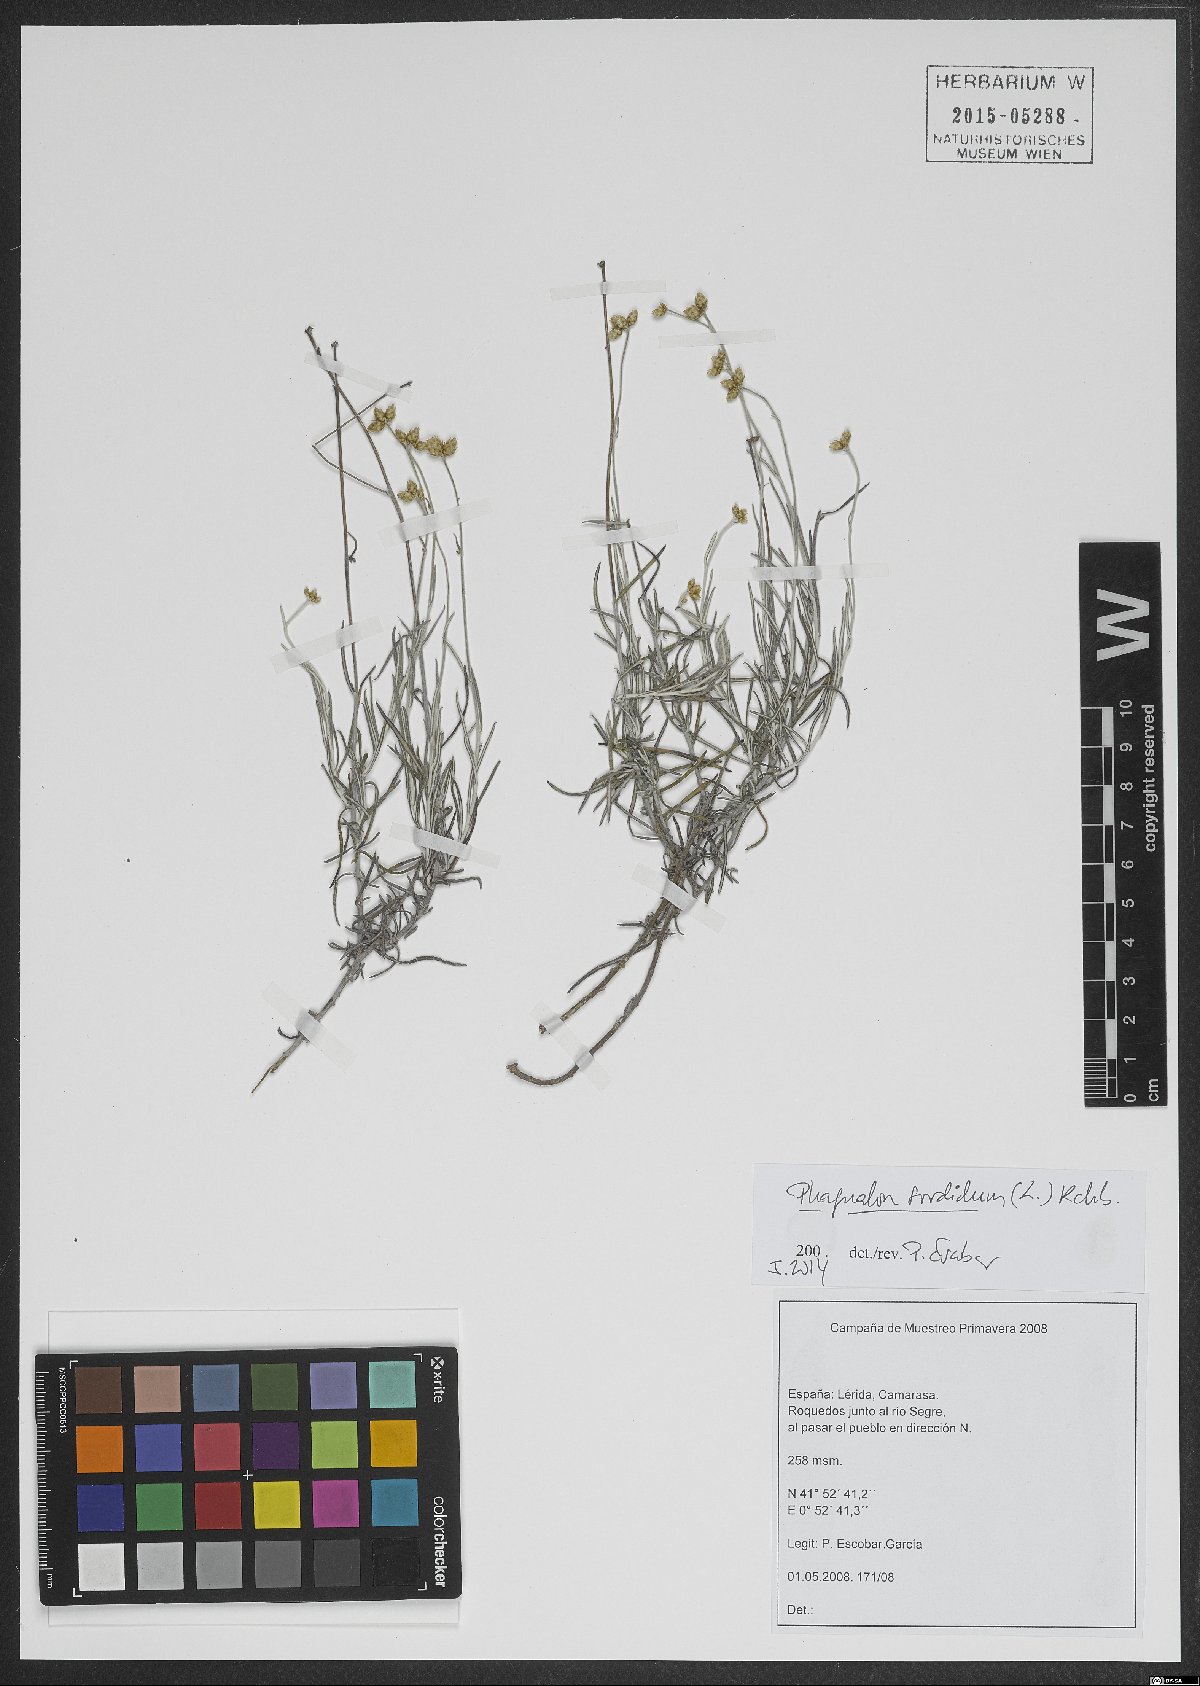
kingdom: Plantae
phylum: Tracheophyta
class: Magnoliopsida
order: Asterales
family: Asteraceae
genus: Phagnalon
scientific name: Phagnalon sordidum
